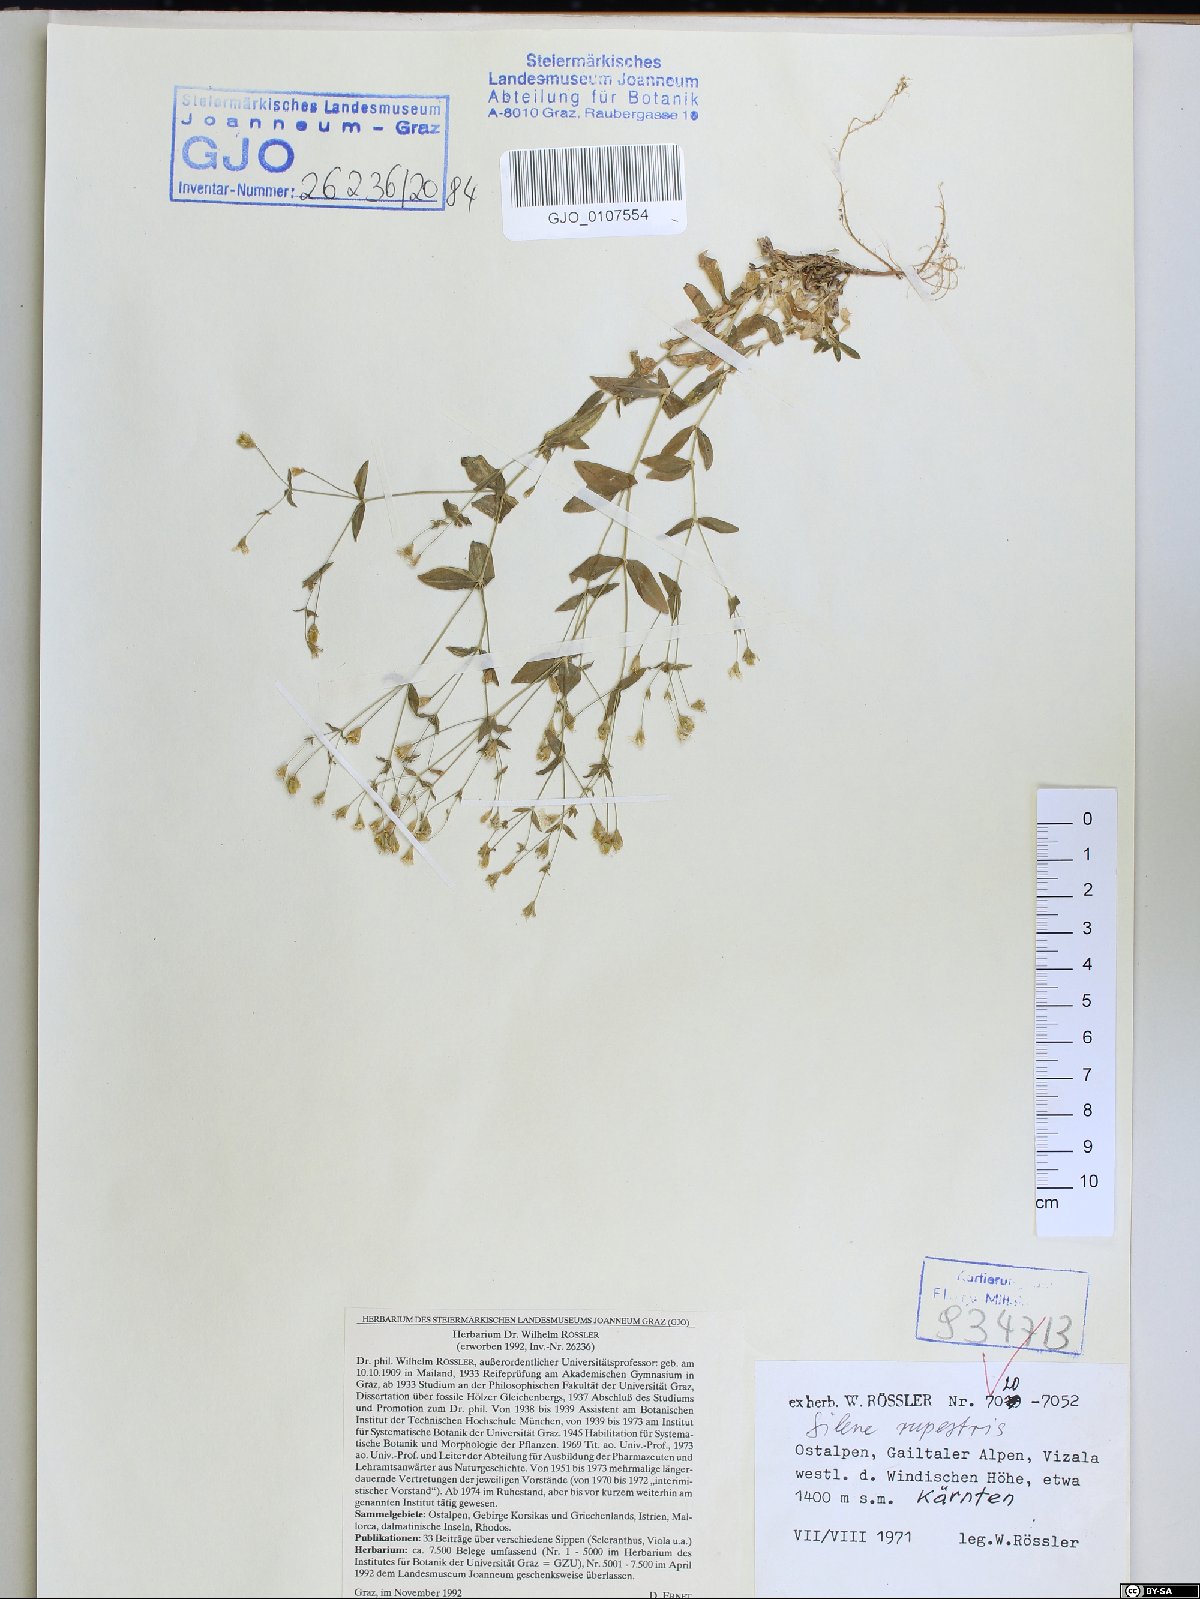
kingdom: Plantae
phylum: Tracheophyta
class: Magnoliopsida
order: Caryophyllales
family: Caryophyllaceae
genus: Atocion
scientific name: Atocion rupestre
